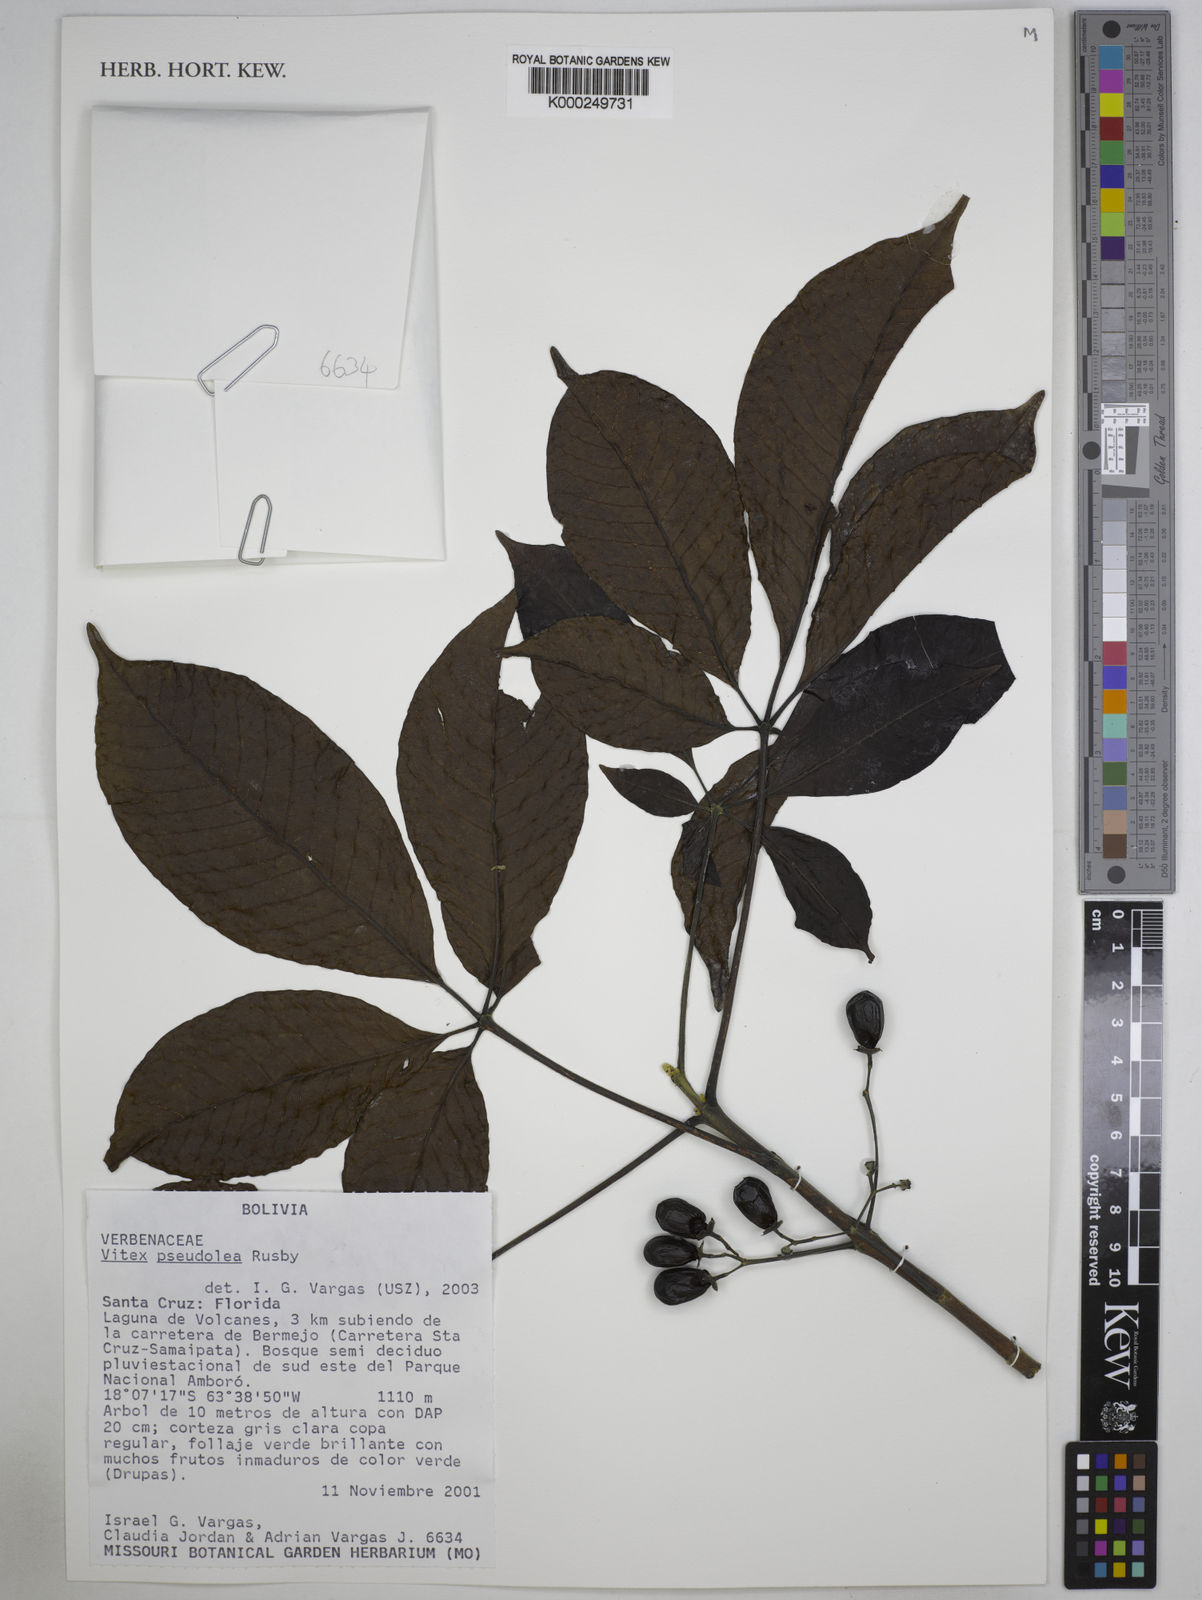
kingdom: Plantae
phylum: Tracheophyta
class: Magnoliopsida
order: Lamiales
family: Lamiaceae
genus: Vitex
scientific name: Vitex pseudolea
